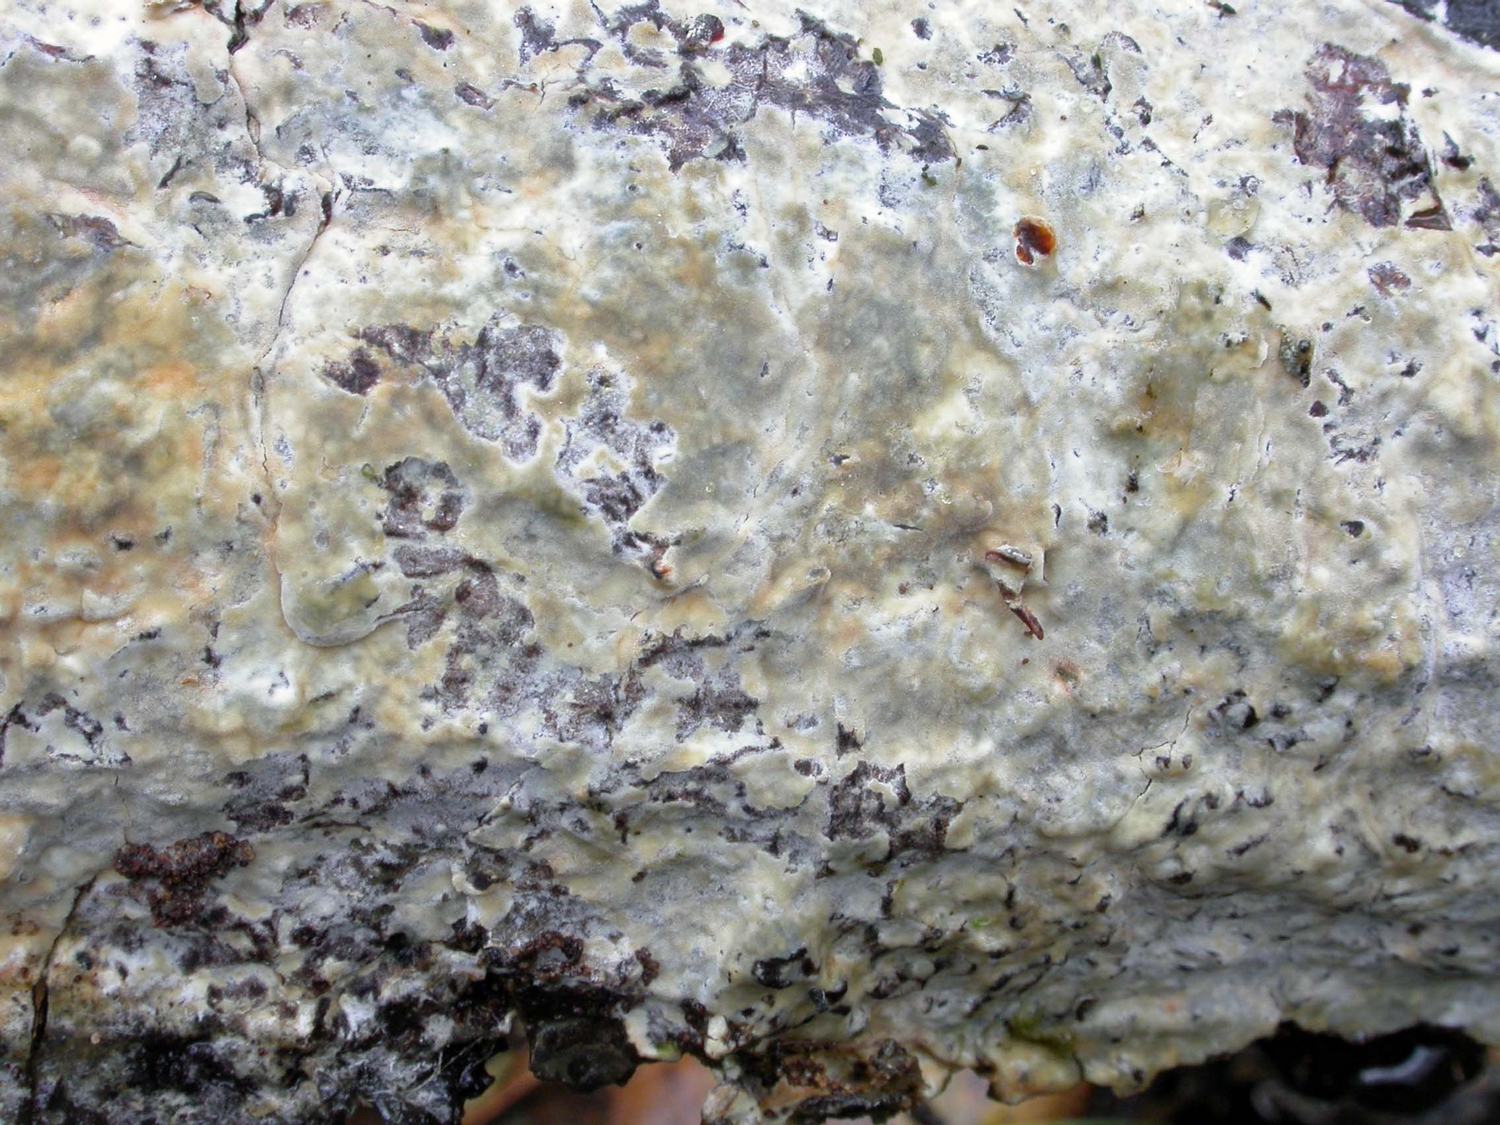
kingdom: Fungi
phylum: Basidiomycota
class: Agaricomycetes
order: Polyporales
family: Phanerochaetaceae
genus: Phanerochaete
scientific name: Phanerochaete velutina
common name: dunet randtråd
